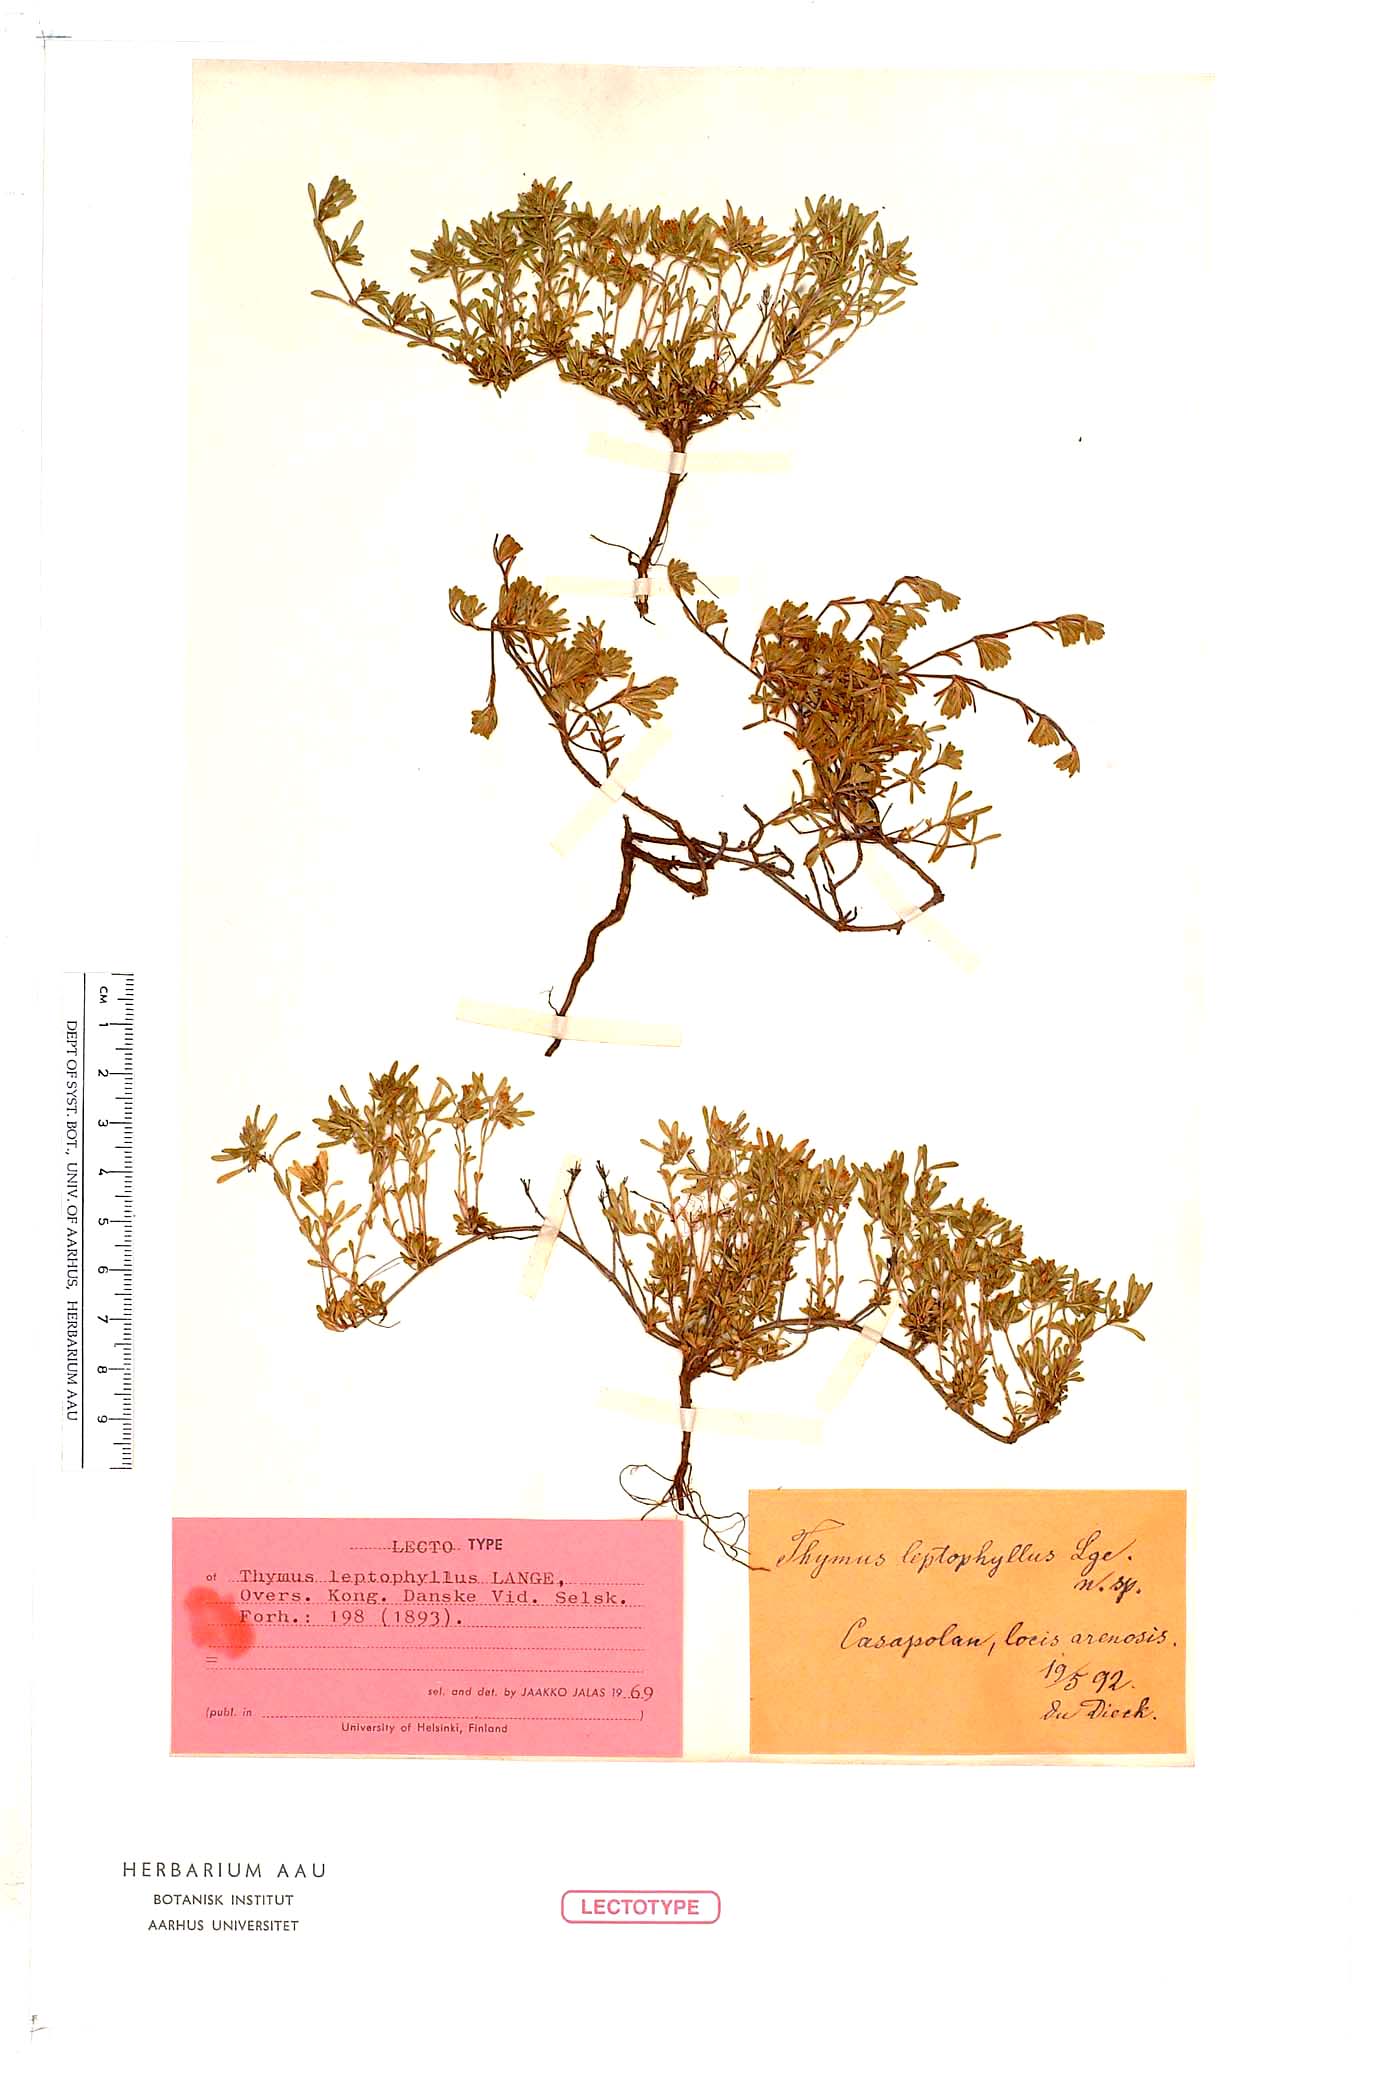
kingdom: Plantae
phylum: Tracheophyta
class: Magnoliopsida
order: Lamiales
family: Lamiaceae
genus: Thymus
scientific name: Thymus leptophyllus
